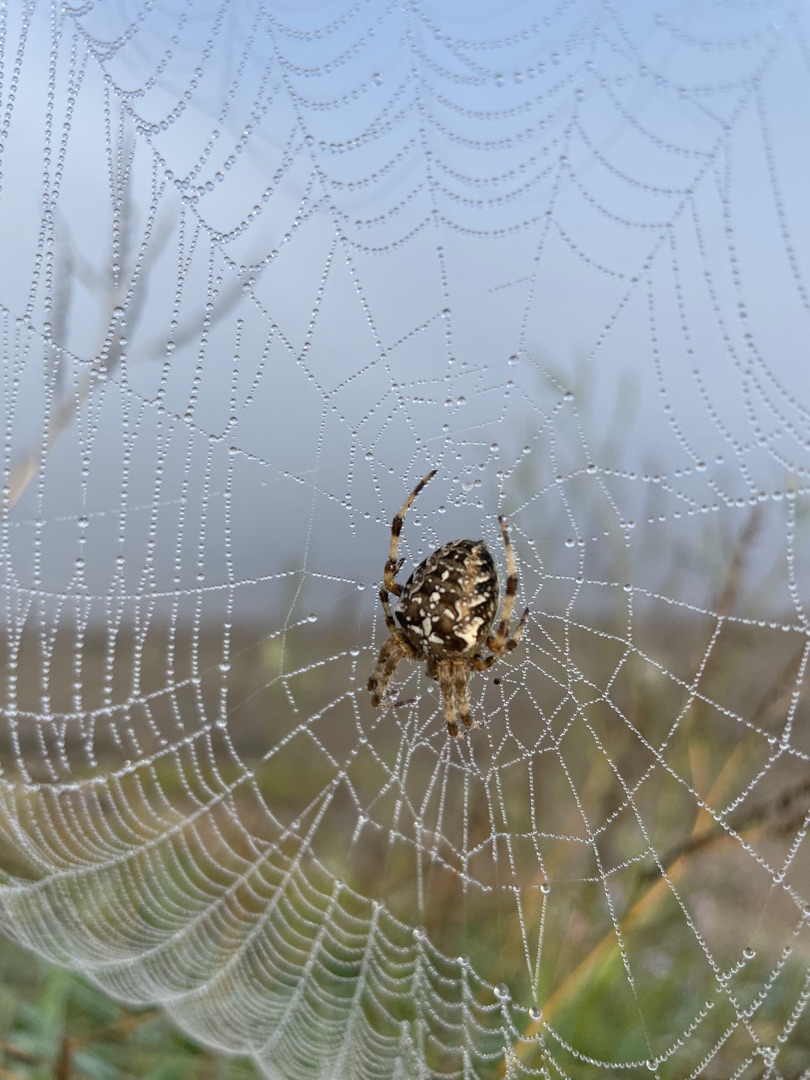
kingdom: Animalia
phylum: Arthropoda
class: Arachnida
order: Araneae
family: Araneidae
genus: Araneus
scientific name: Araneus diadematus
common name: Korsedderkop
